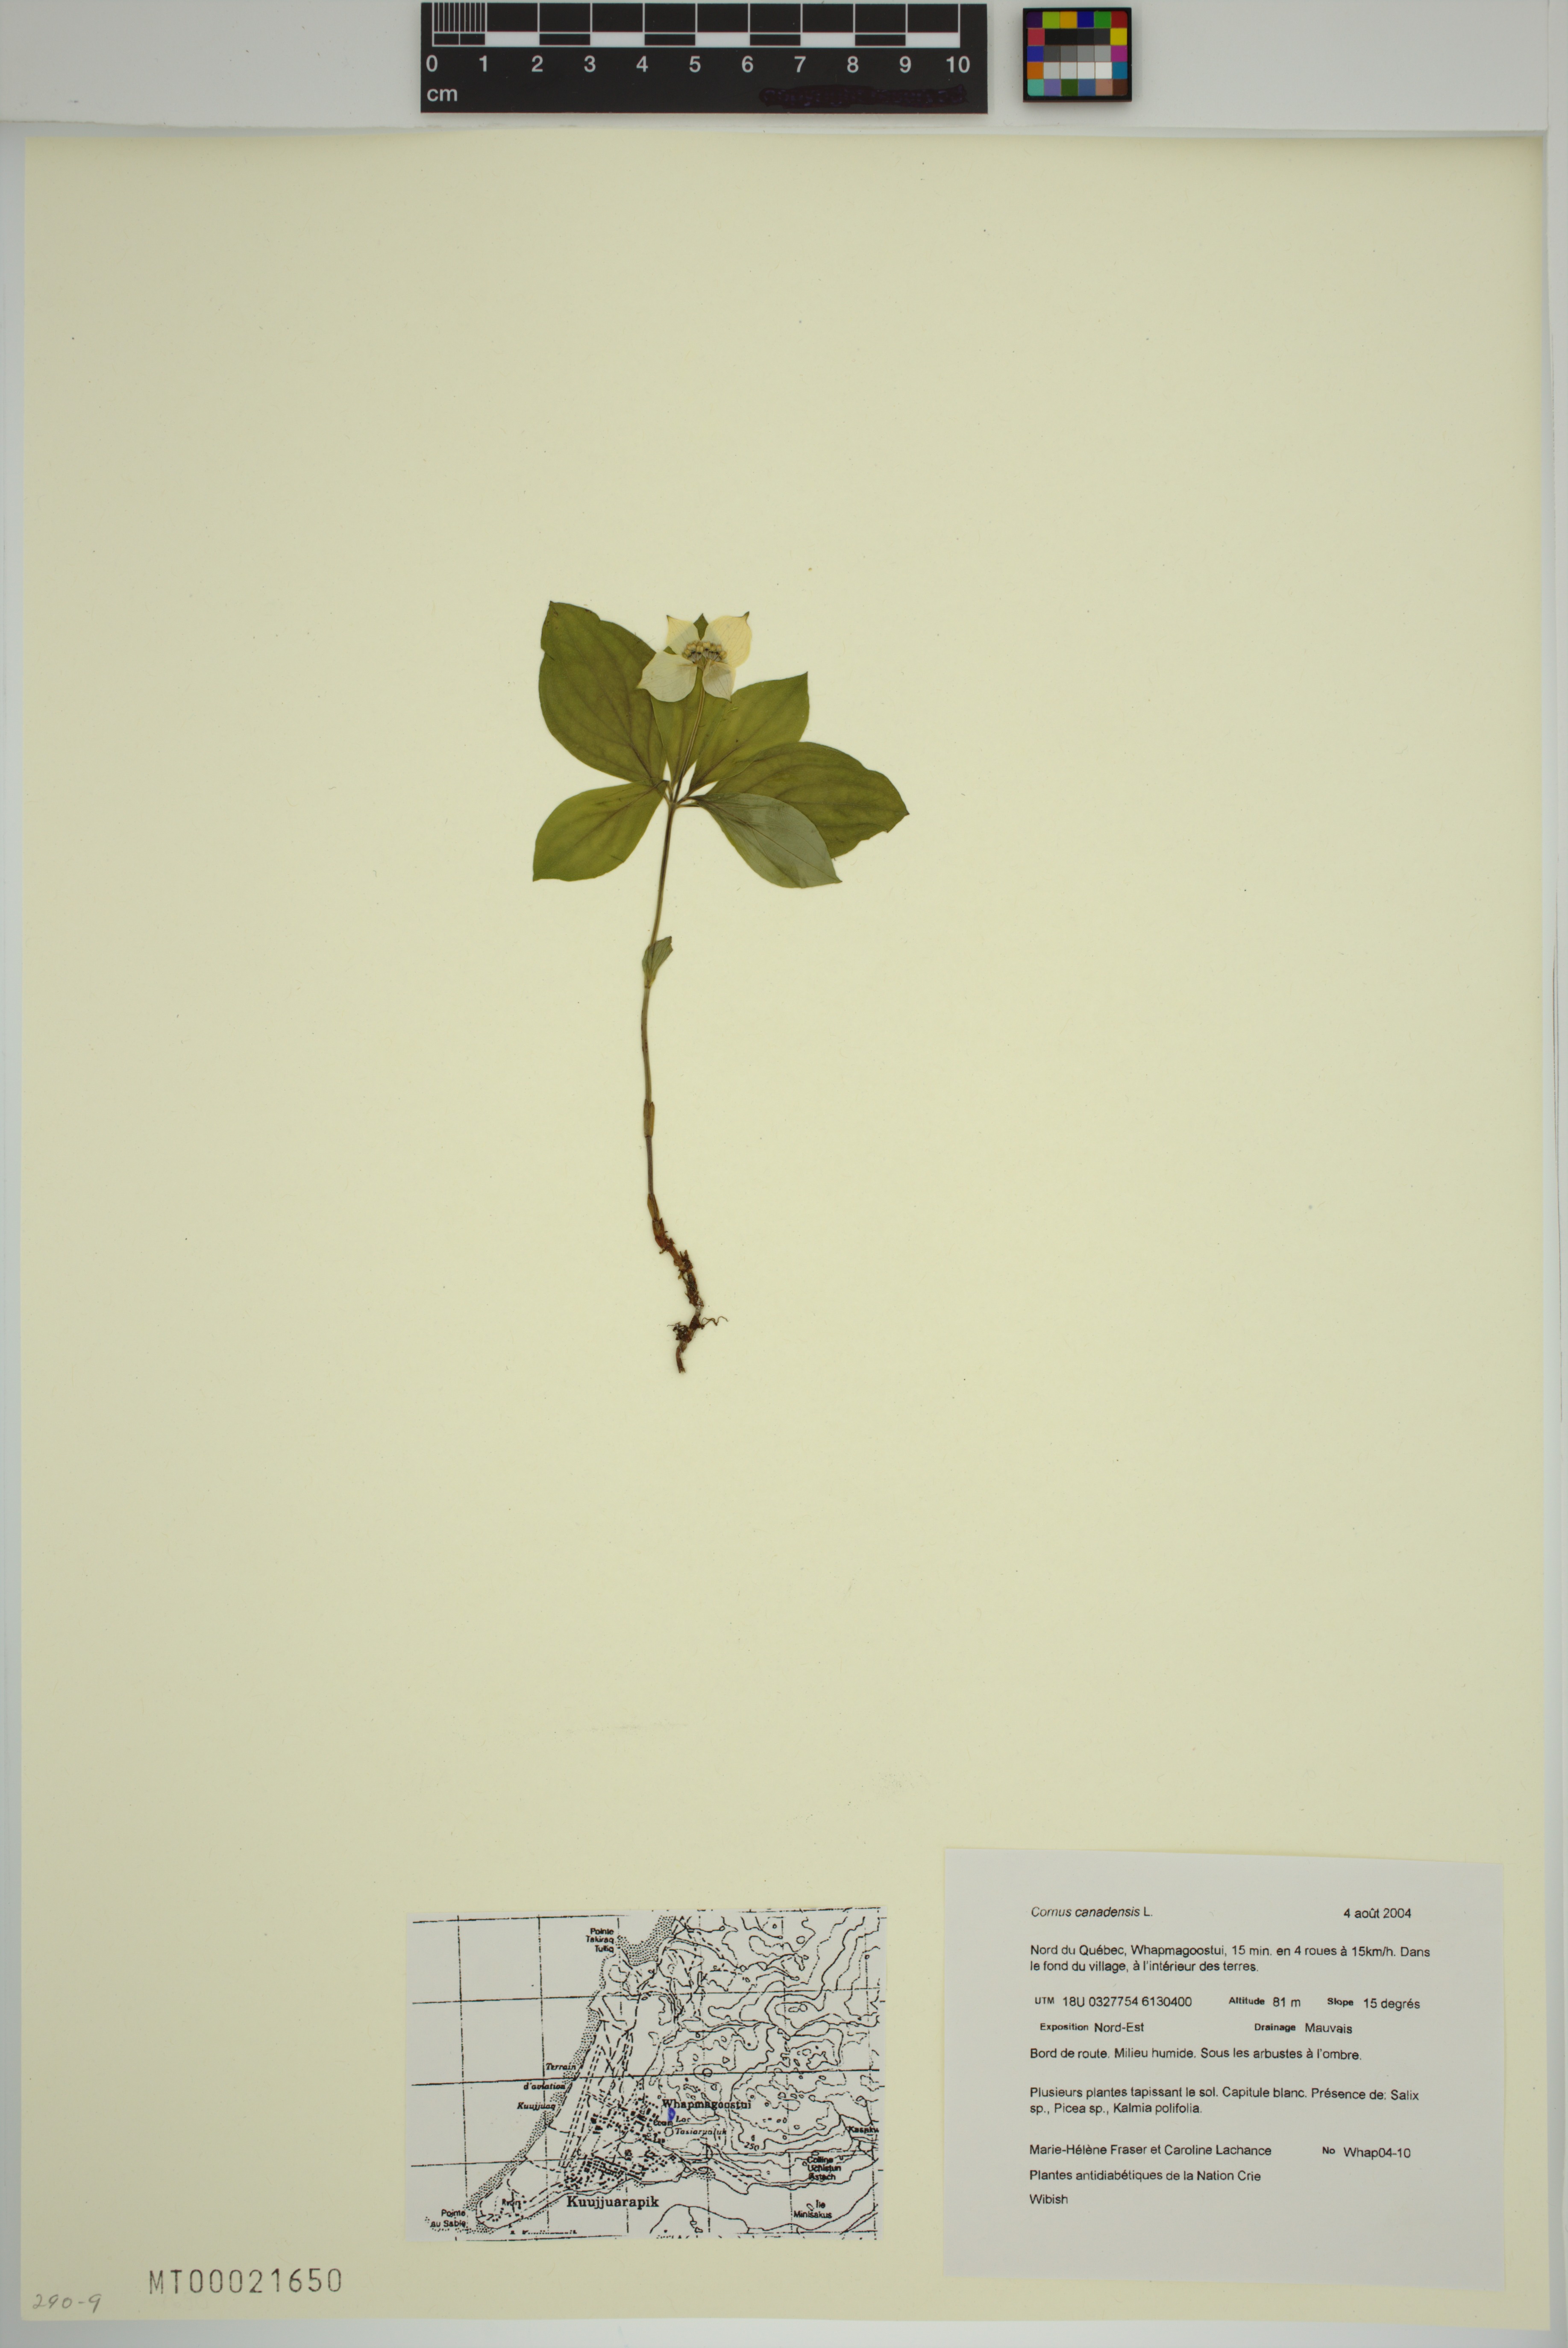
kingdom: Plantae
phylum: Tracheophyta
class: Magnoliopsida
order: Cornales
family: Cornaceae
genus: Cornus
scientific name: Cornus canadensis
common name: Creeping dogwood
